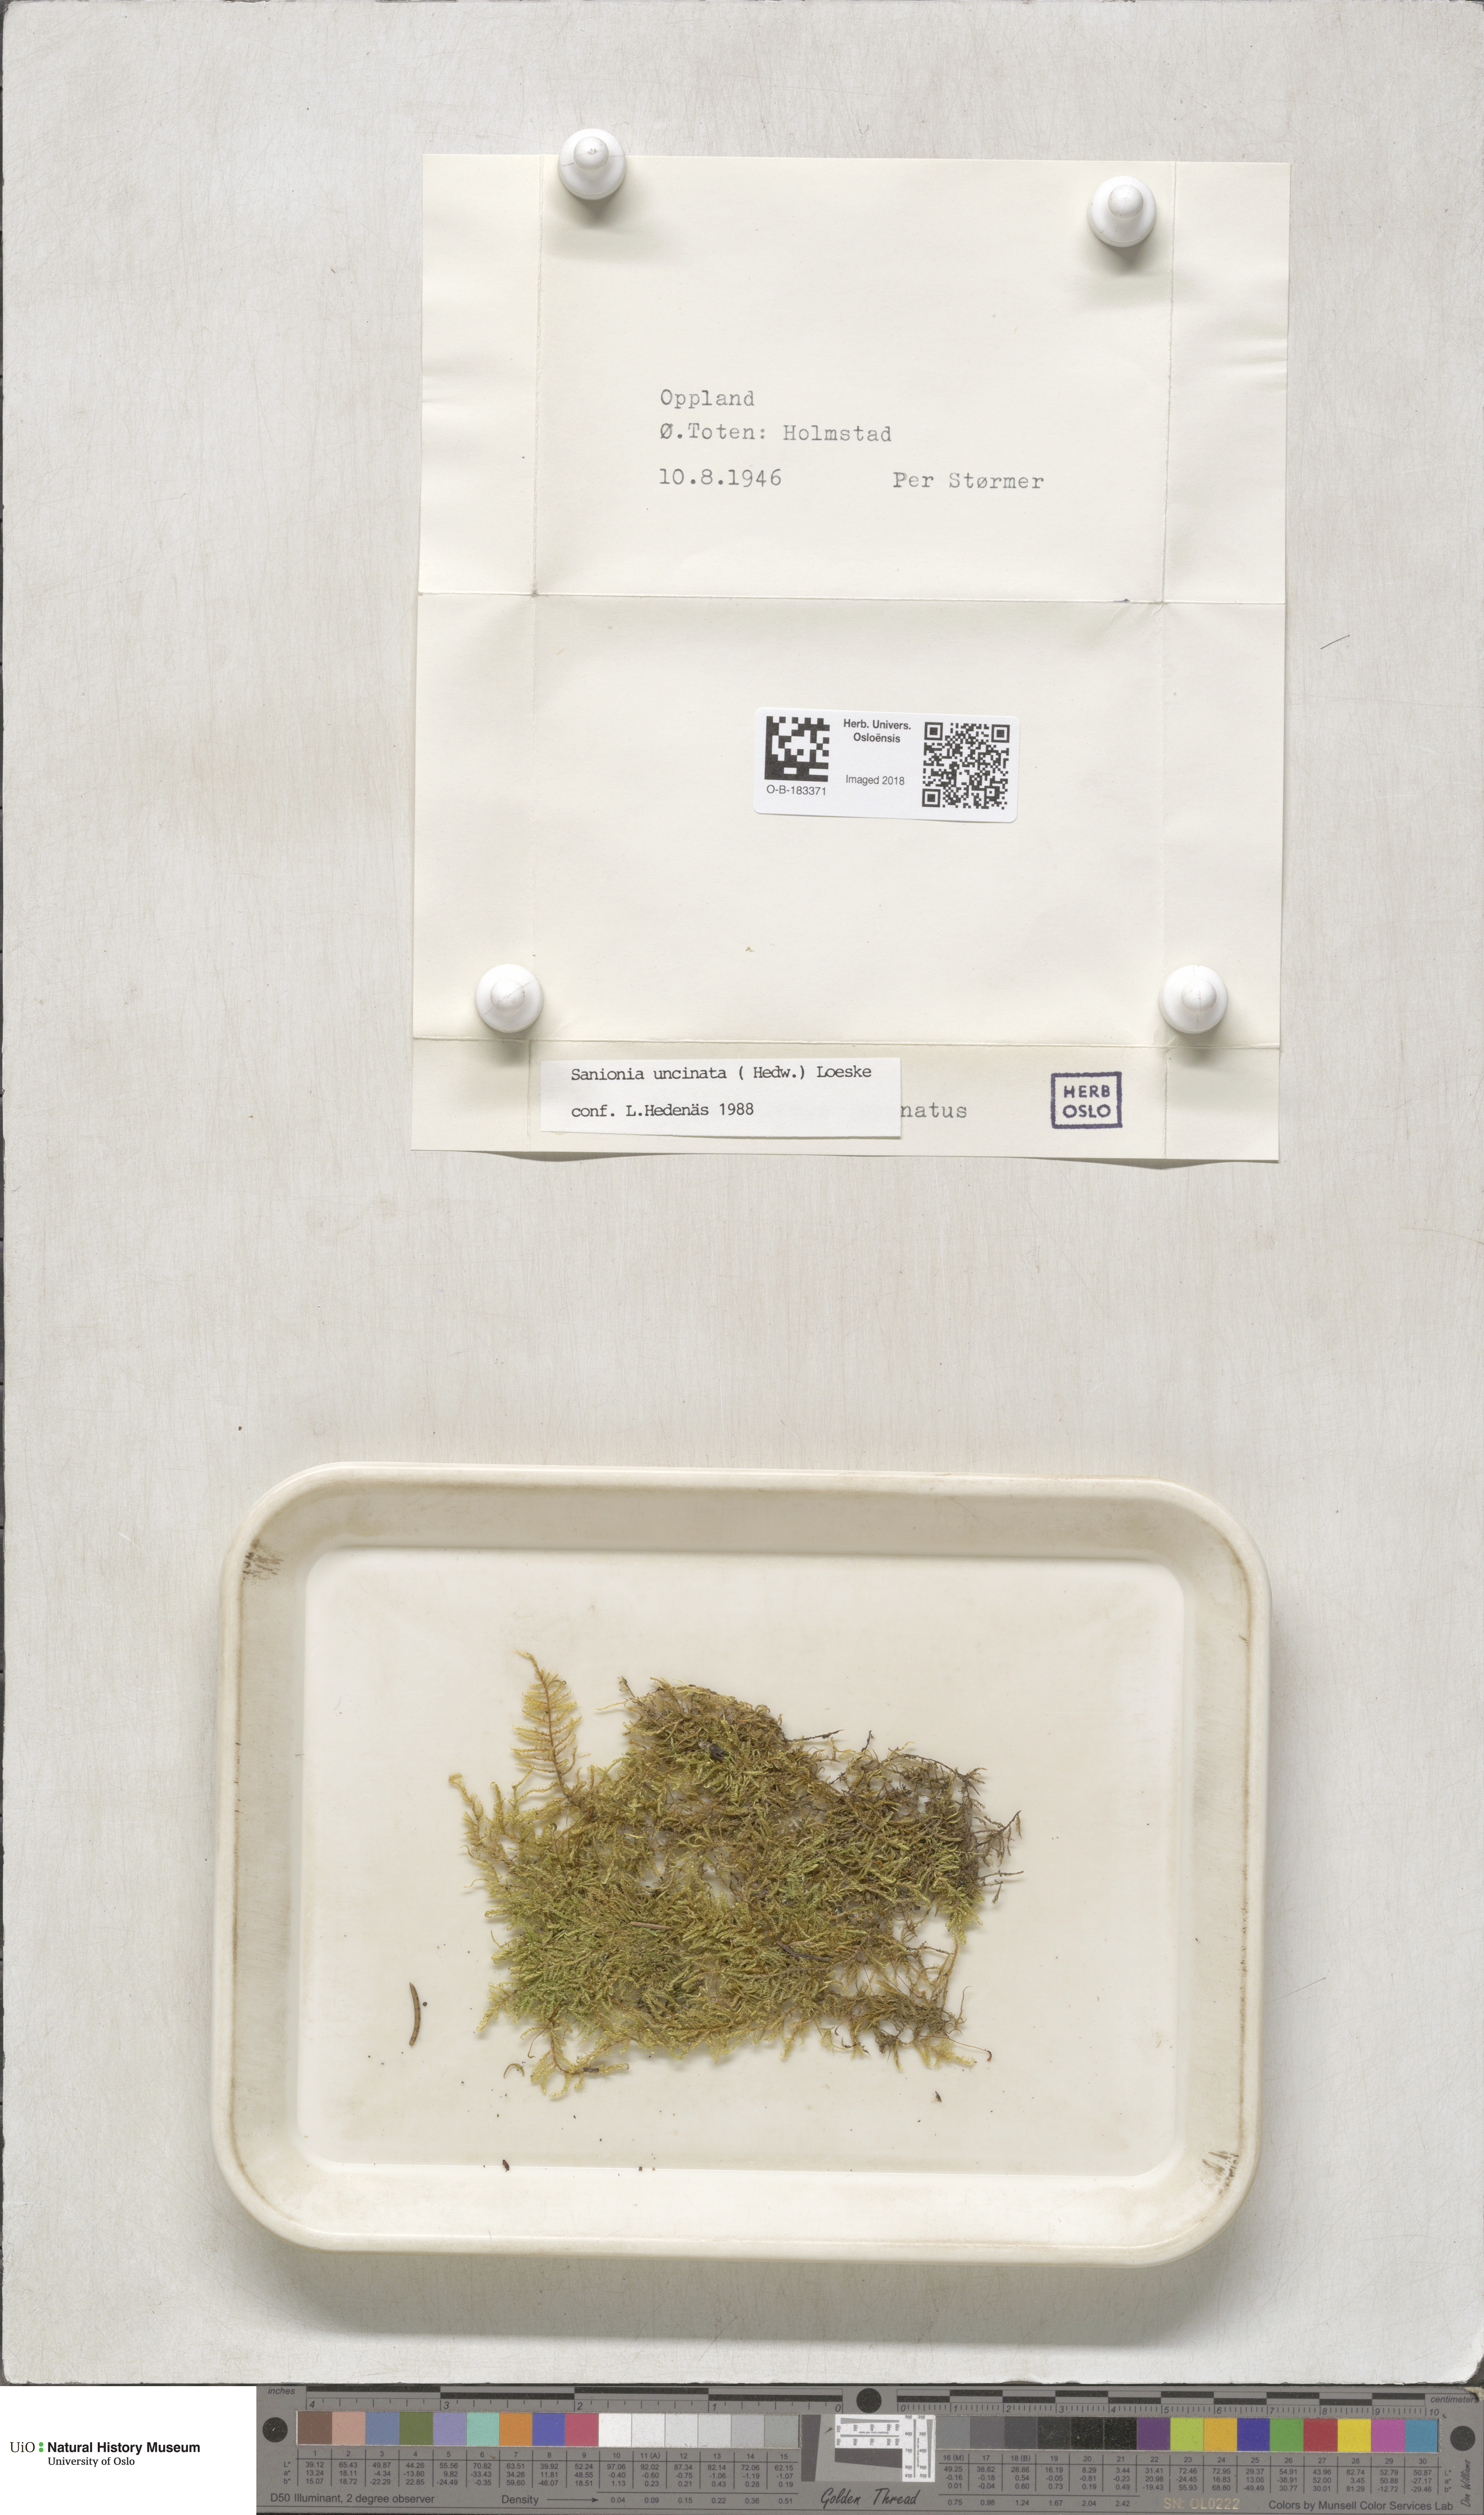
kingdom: Plantae
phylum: Bryophyta
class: Bryopsida
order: Hypnales
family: Scorpidiaceae
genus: Sanionia
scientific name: Sanionia uncinata
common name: Sickle moss
